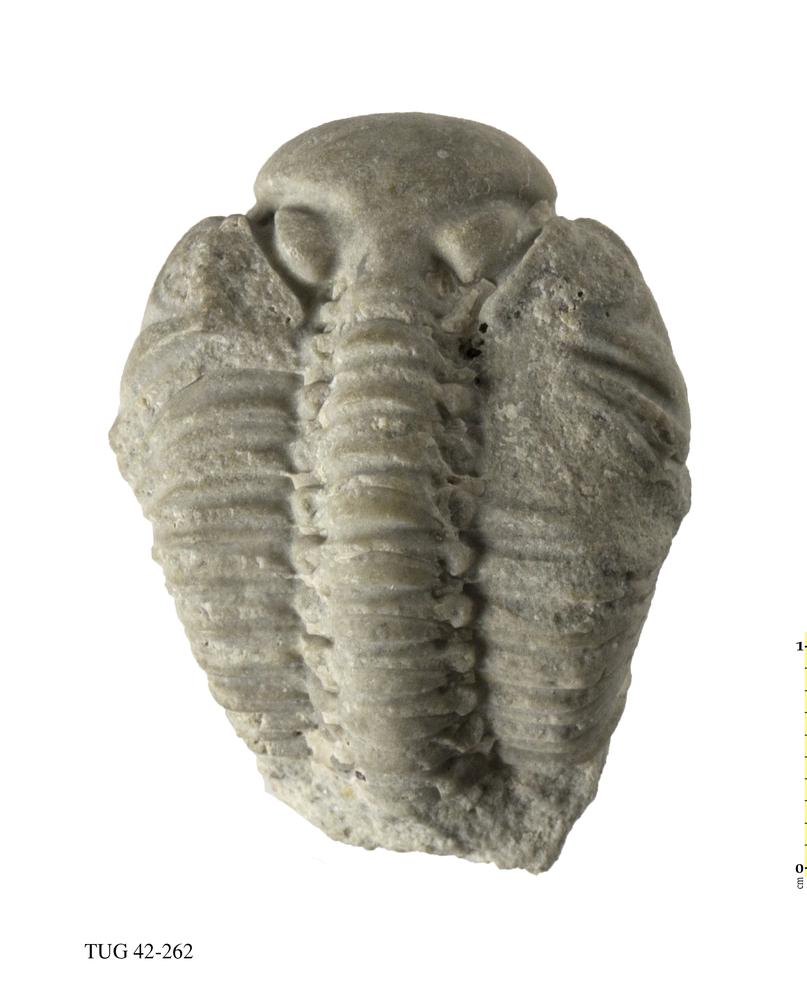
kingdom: Animalia
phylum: Arthropoda
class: Trilobita
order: Phacopida
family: Phacopidae
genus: Phacops
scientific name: Phacops
